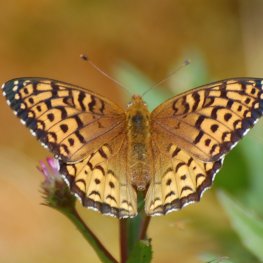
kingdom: Animalia
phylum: Arthropoda
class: Insecta
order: Lepidoptera
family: Nymphalidae
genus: Speyeria
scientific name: Speyeria atlantis
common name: Atlantis Fritillary
